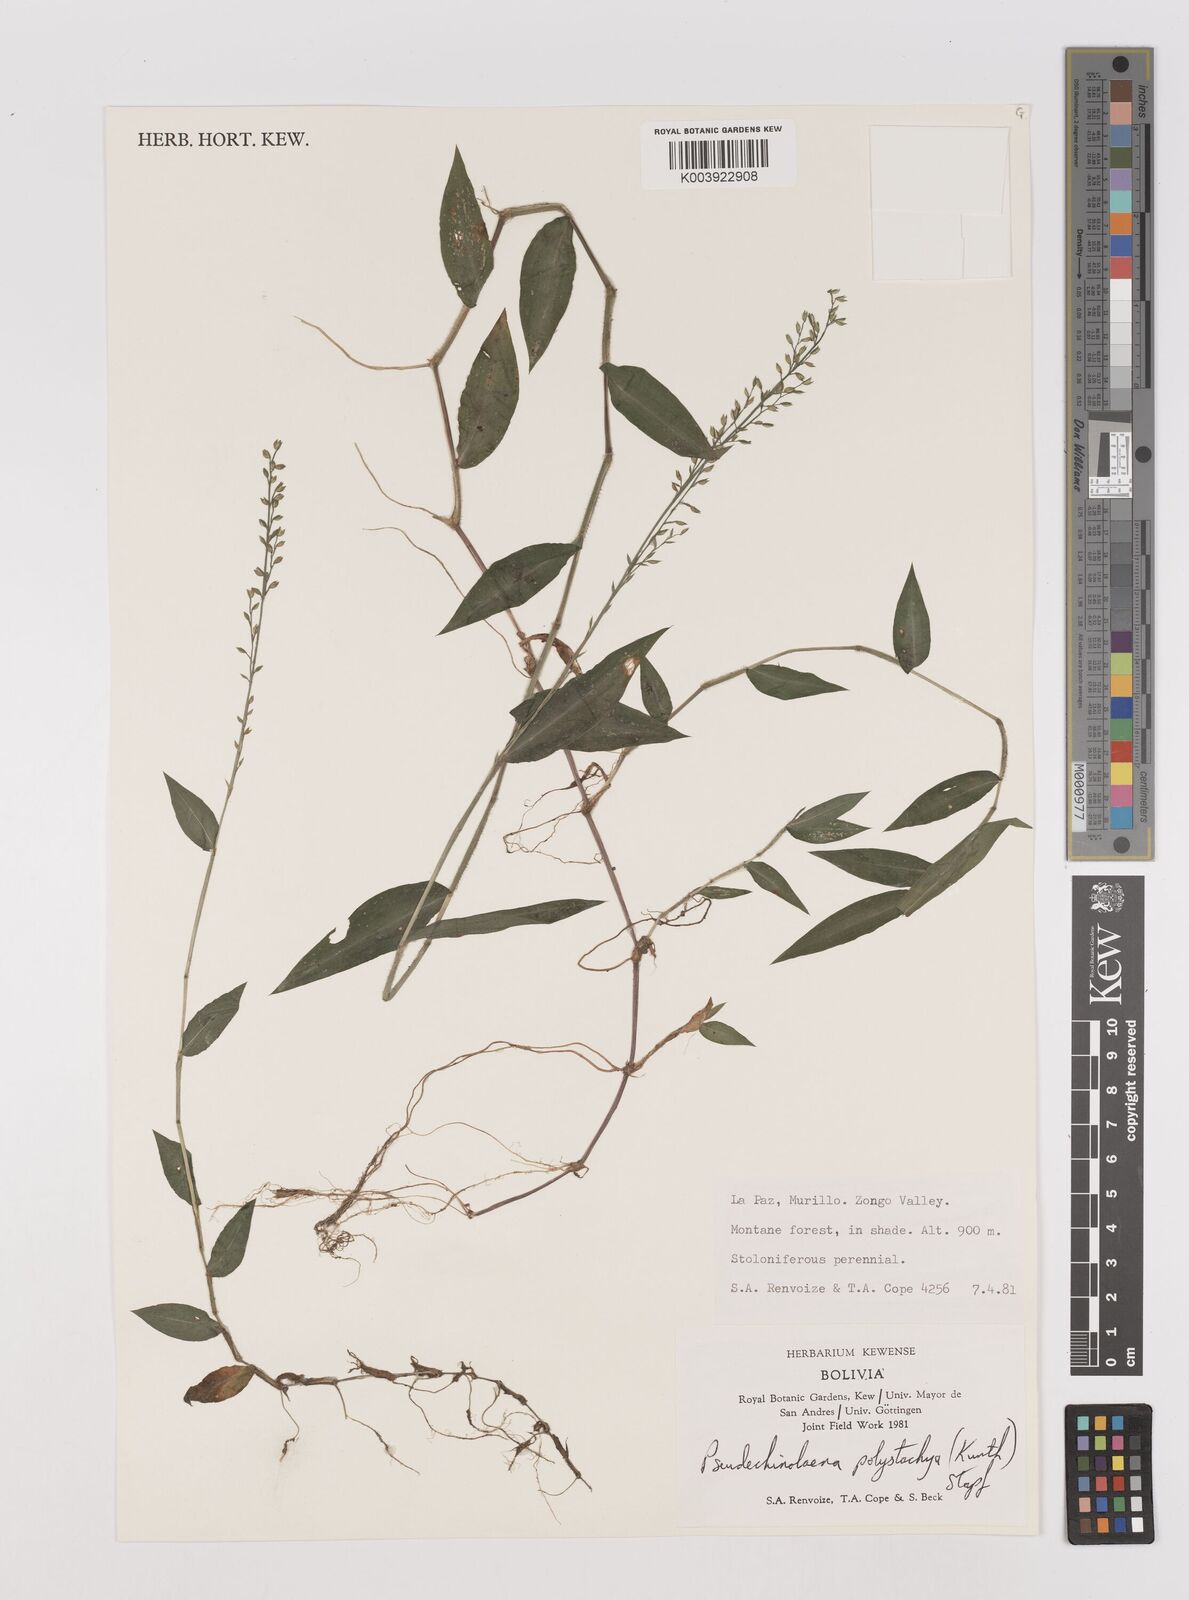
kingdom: Plantae
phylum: Tracheophyta
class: Liliopsida
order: Poales
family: Poaceae
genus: Pseudechinolaena
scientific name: Pseudechinolaena polystachya
